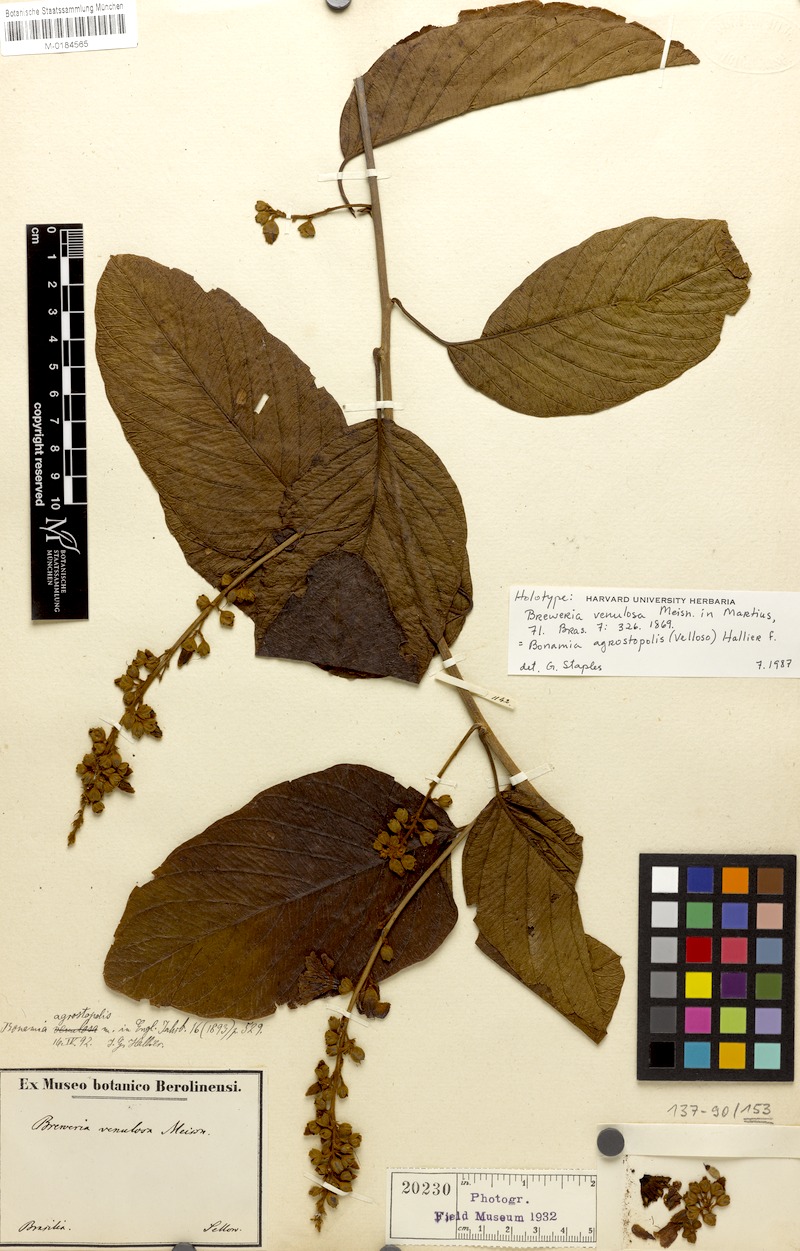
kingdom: Plantae
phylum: Tracheophyta
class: Magnoliopsida
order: Solanales
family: Convolvulaceae
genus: Bonamia
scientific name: Bonamia agrostopolis
